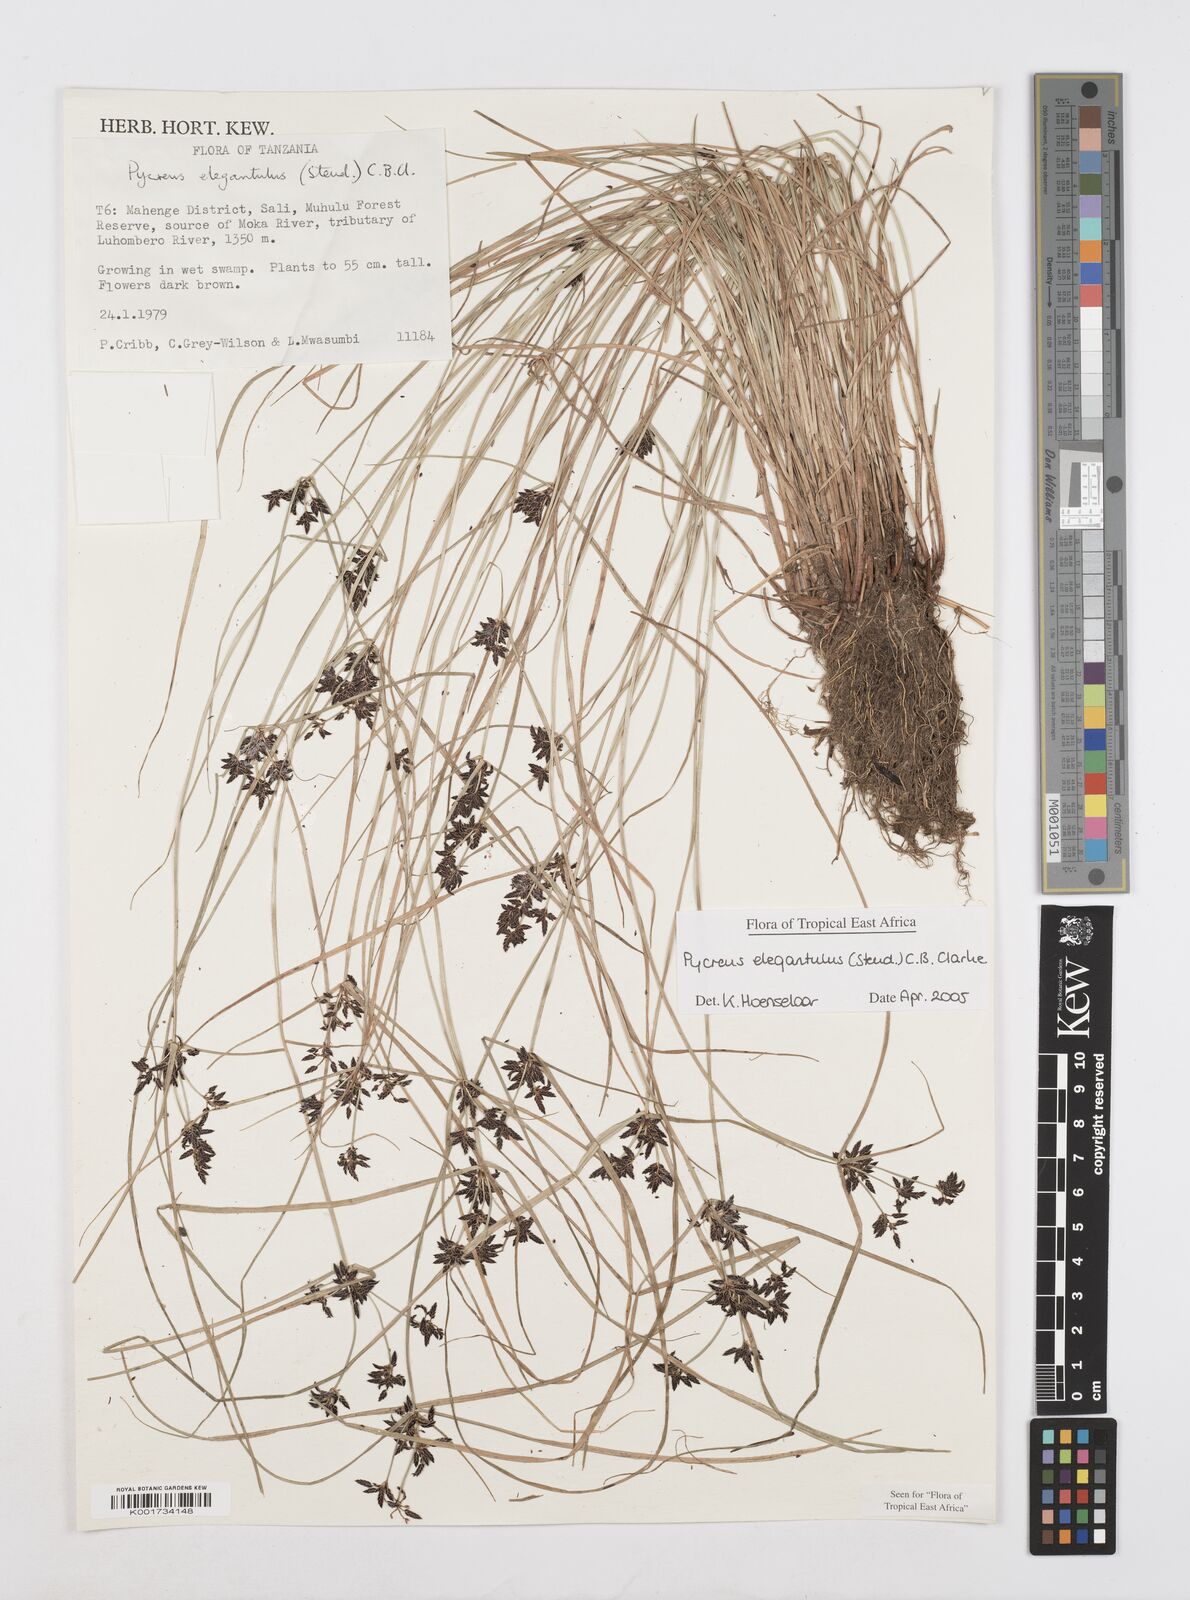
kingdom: Plantae
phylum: Tracheophyta
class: Liliopsida
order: Poales
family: Cyperaceae
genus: Cyperus
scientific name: Cyperus elegantulus
